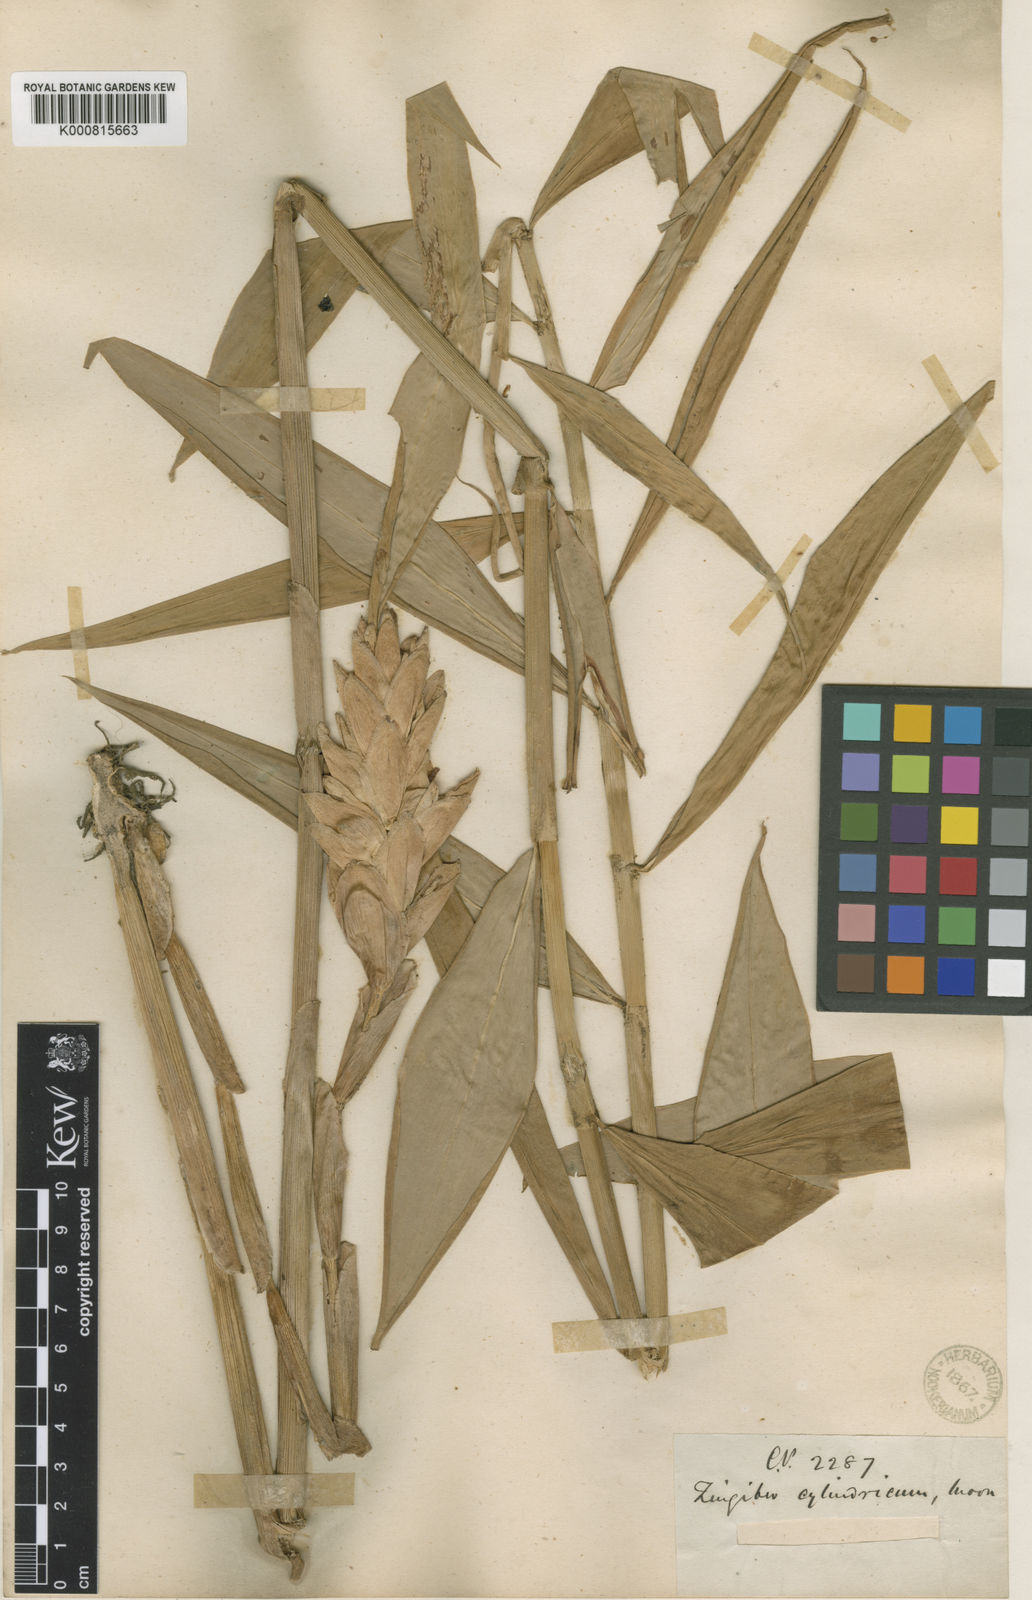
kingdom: Plantae
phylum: Tracheophyta
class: Liliopsida
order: Zingiberales
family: Zingiberaceae
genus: Zingiber
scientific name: Zingiber
